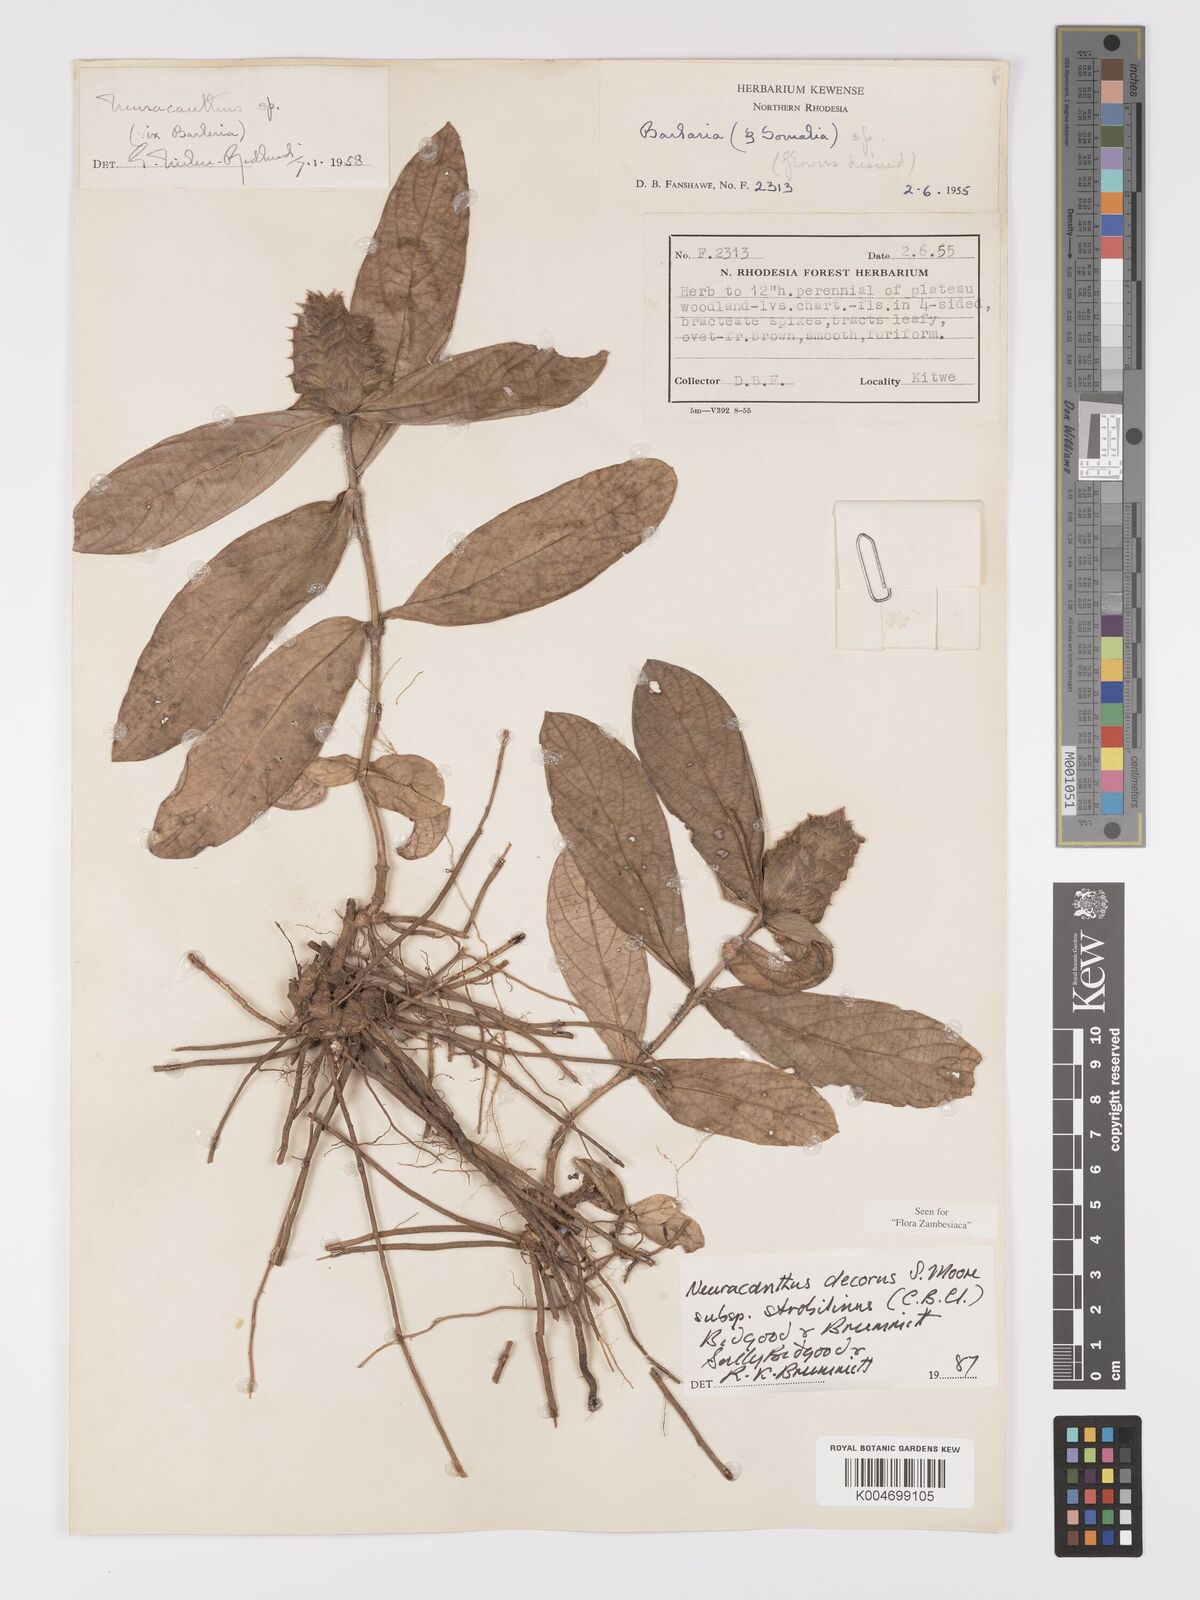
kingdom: Plantae
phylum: Tracheophyta
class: Magnoliopsida
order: Lamiales
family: Acanthaceae
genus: Neuracanthus
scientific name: Neuracanthus decorus
